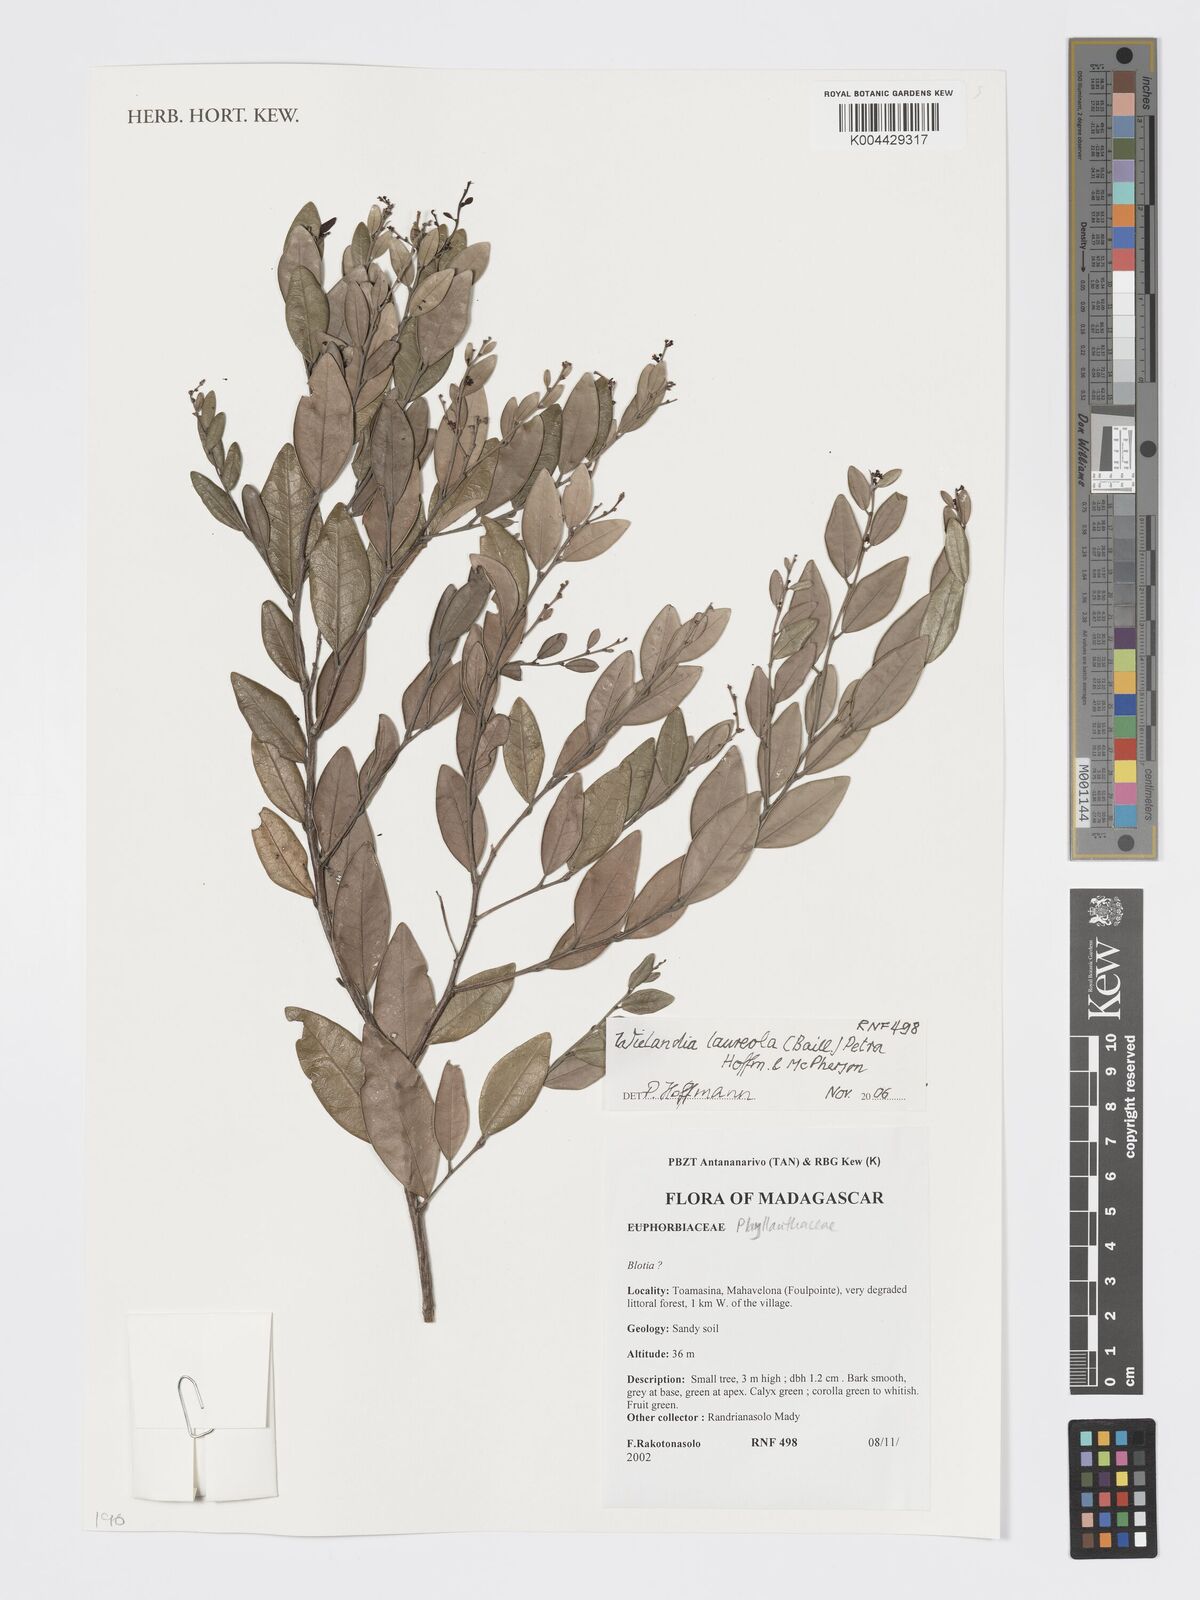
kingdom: Plantae
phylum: Tracheophyta
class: Magnoliopsida
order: Malpighiales
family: Phyllanthaceae
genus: Wielandia
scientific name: Wielandia laureola
